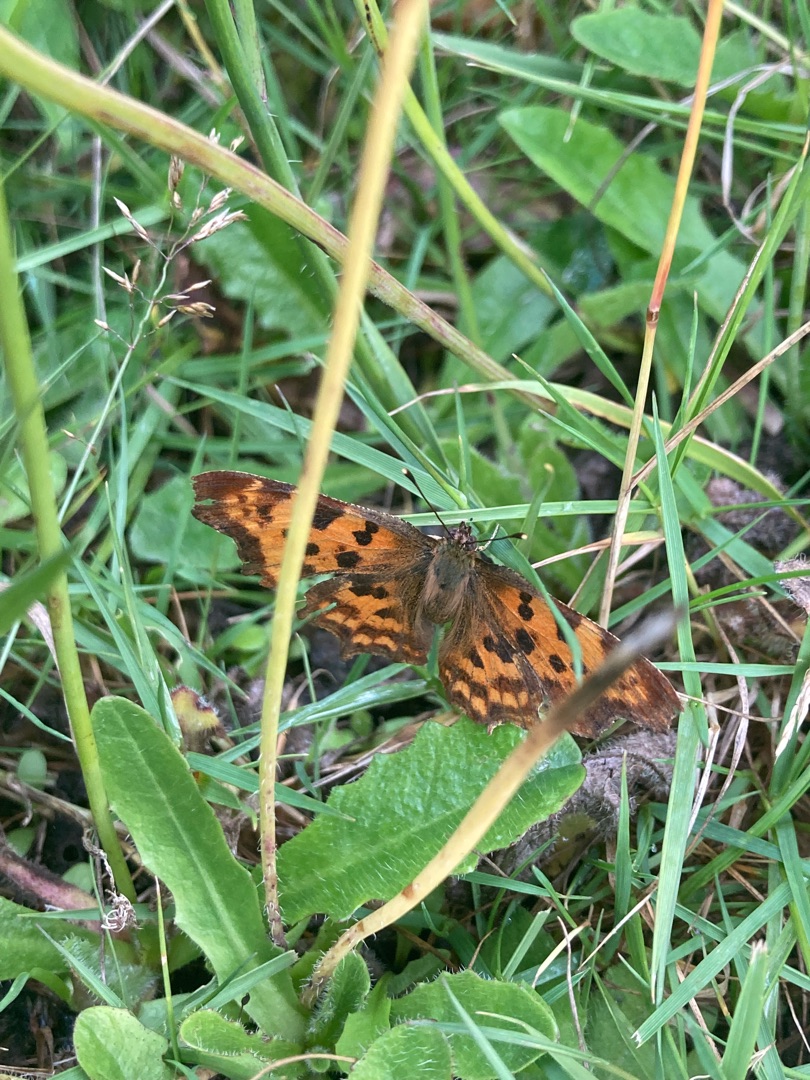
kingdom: Animalia
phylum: Arthropoda
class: Insecta
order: Lepidoptera
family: Nymphalidae
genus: Polygonia
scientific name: Polygonia c-album
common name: Det hvide C
